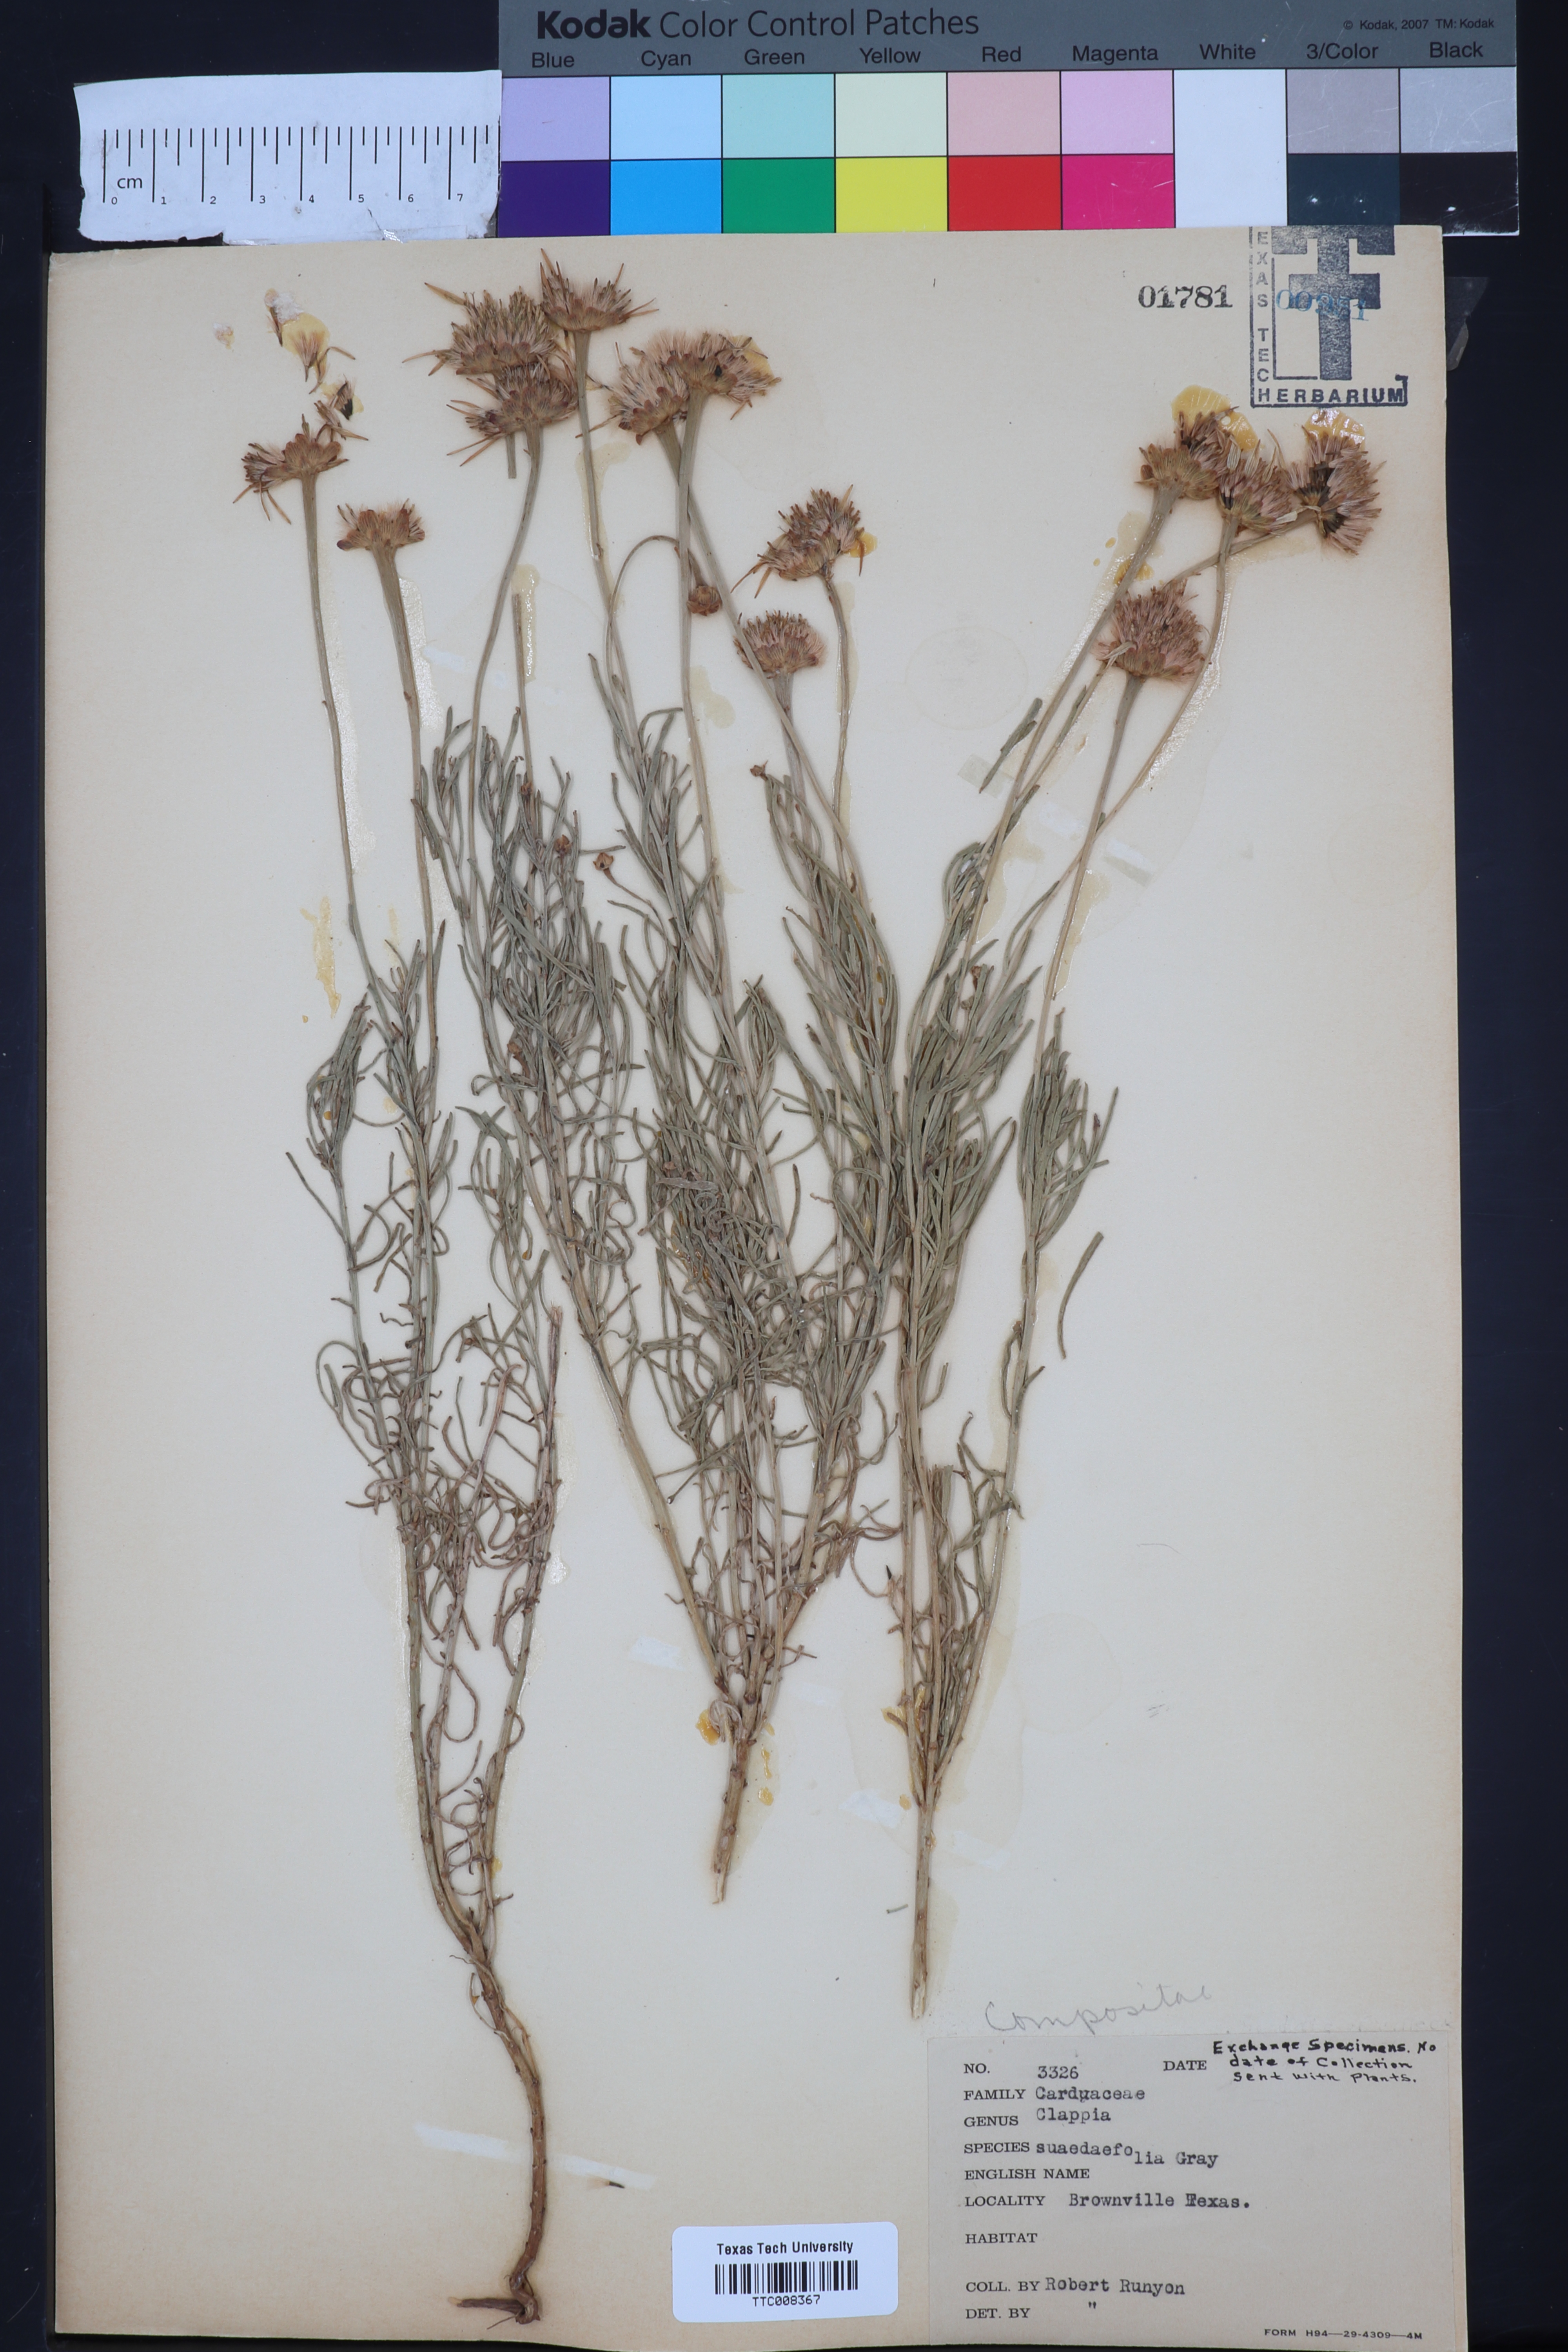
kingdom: Plantae
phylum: Tracheophyta
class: Magnoliopsida
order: Asterales
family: Asteraceae
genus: Clappia
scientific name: Clappia suaedaefolia
